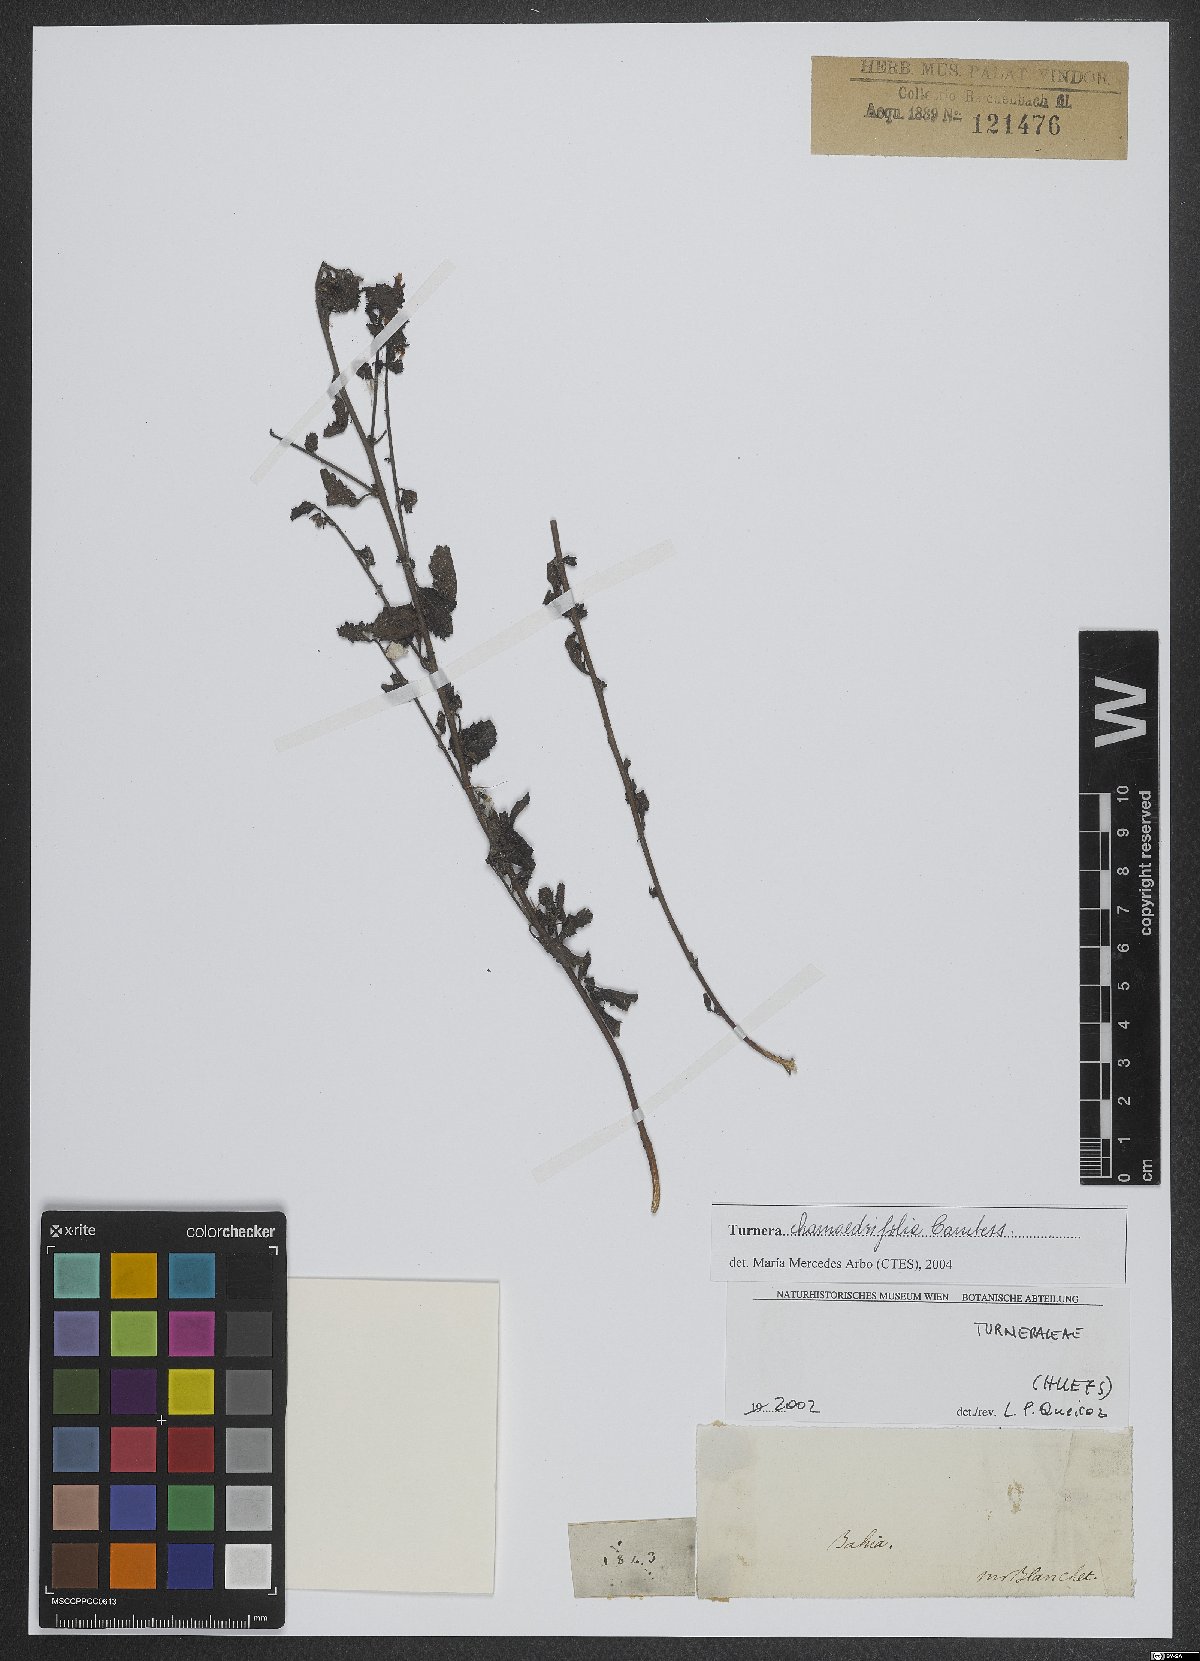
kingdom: Plantae
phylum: Tracheophyta
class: Magnoliopsida
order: Malpighiales
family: Turneraceae
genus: Turnera
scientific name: Turnera chamaedrifolia
